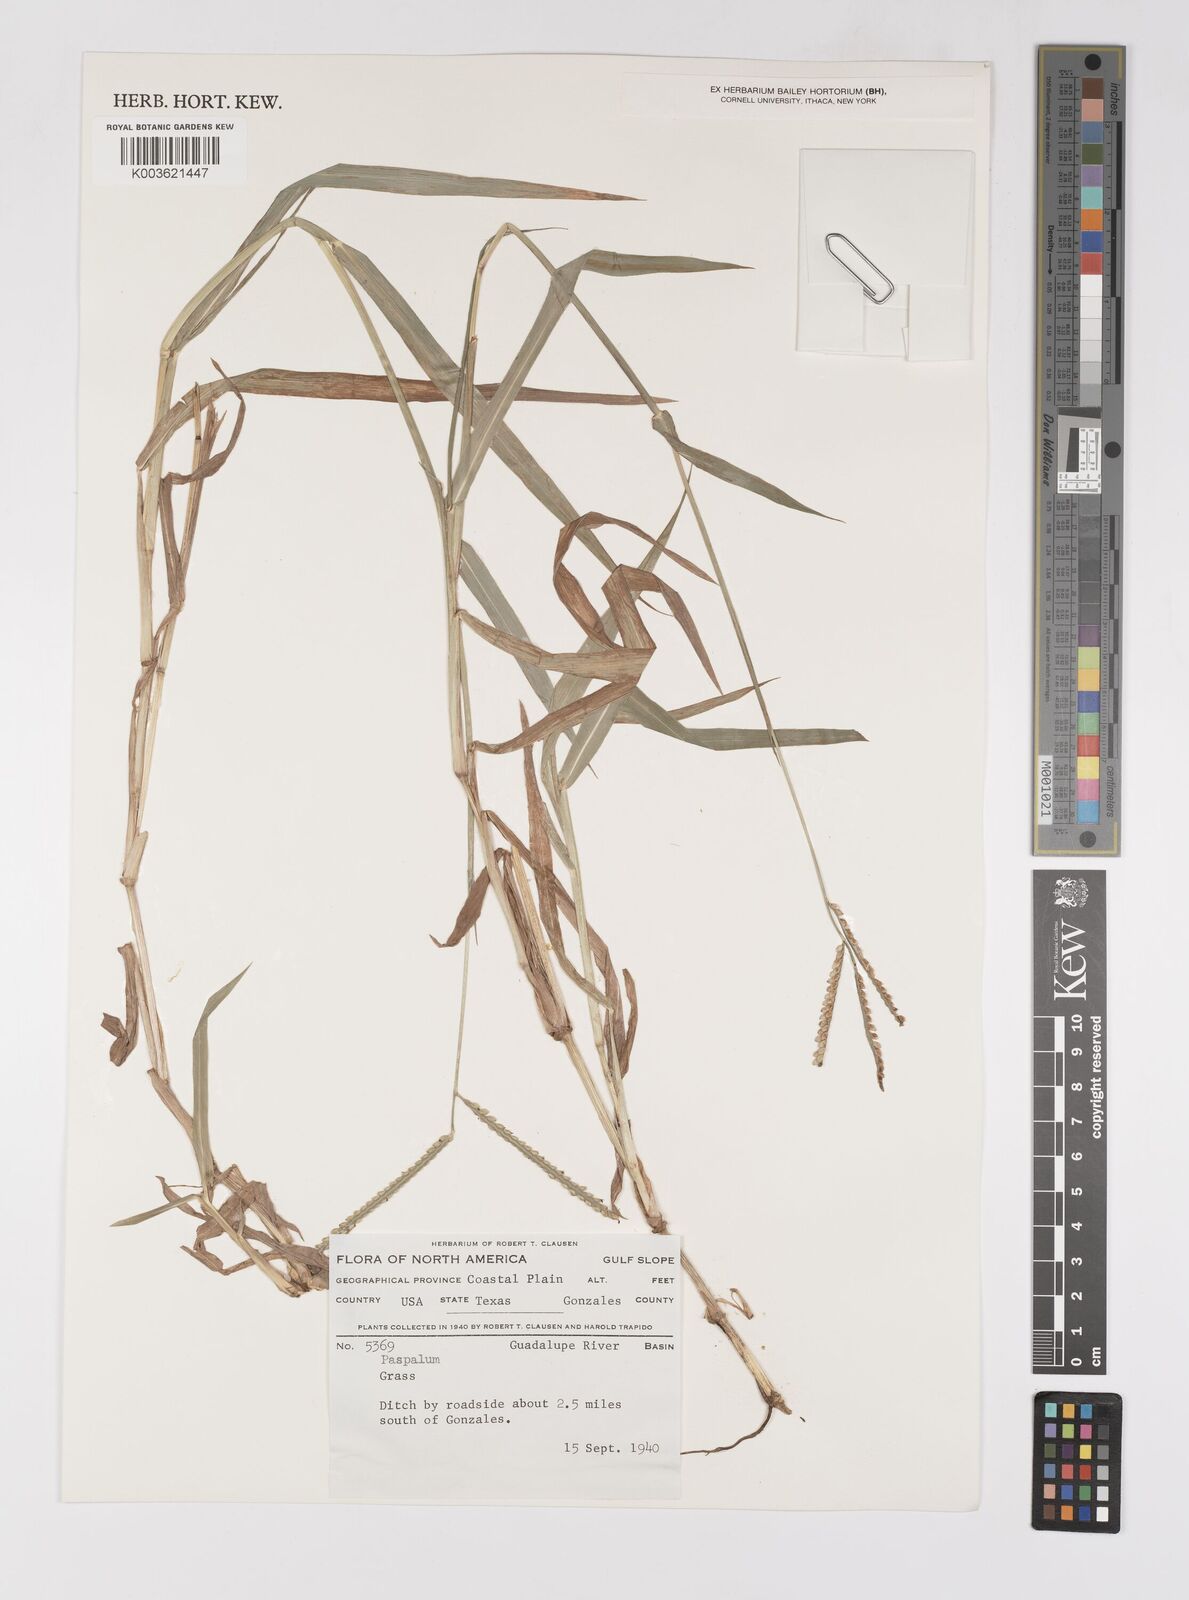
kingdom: Plantae
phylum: Tracheophyta
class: Liliopsida
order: Poales
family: Poaceae
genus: Paspalum
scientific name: Paspalum
